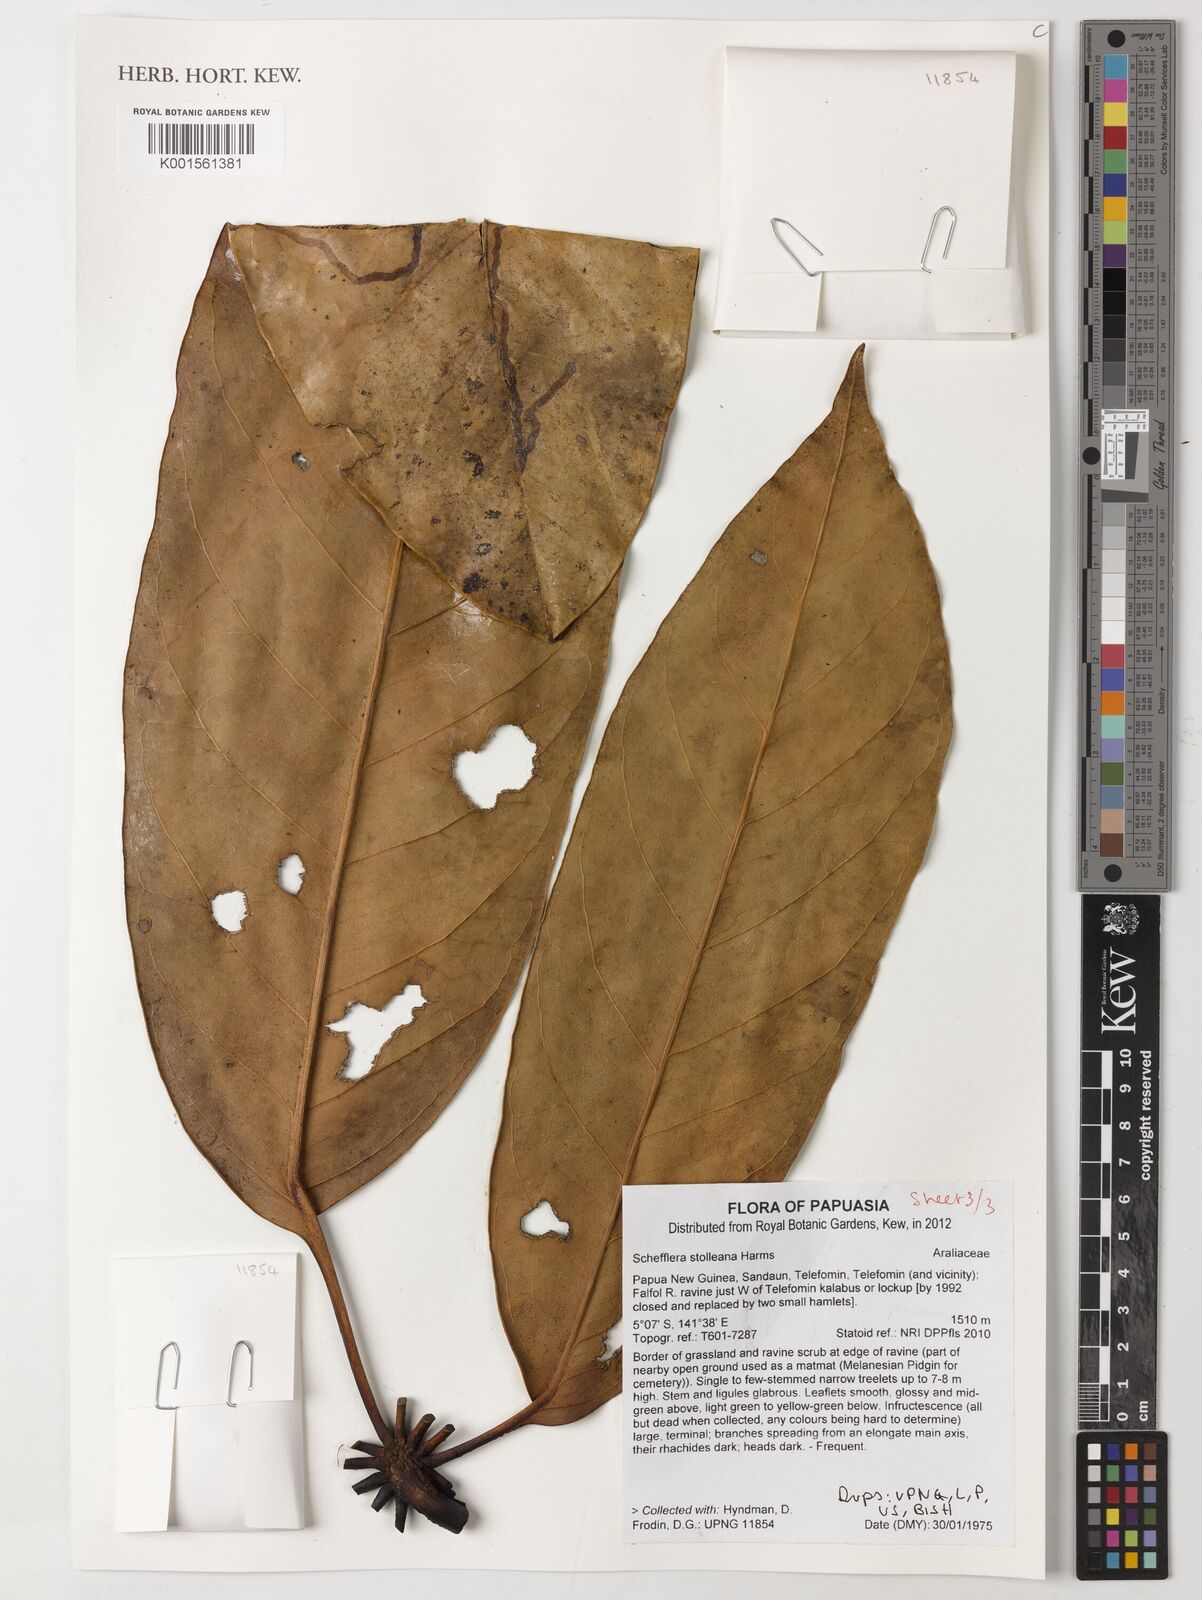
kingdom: Plantae
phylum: Tracheophyta
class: Magnoliopsida
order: Apiales
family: Araliaceae
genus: Heptapleurum
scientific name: Heptapleurum stolleanum
